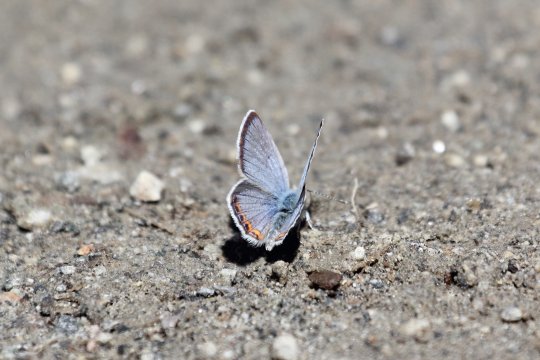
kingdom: Animalia
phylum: Arthropoda
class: Insecta
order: Lepidoptera
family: Lycaenidae
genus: Plebejus
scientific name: Plebejus lupini
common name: Lupine Blue
